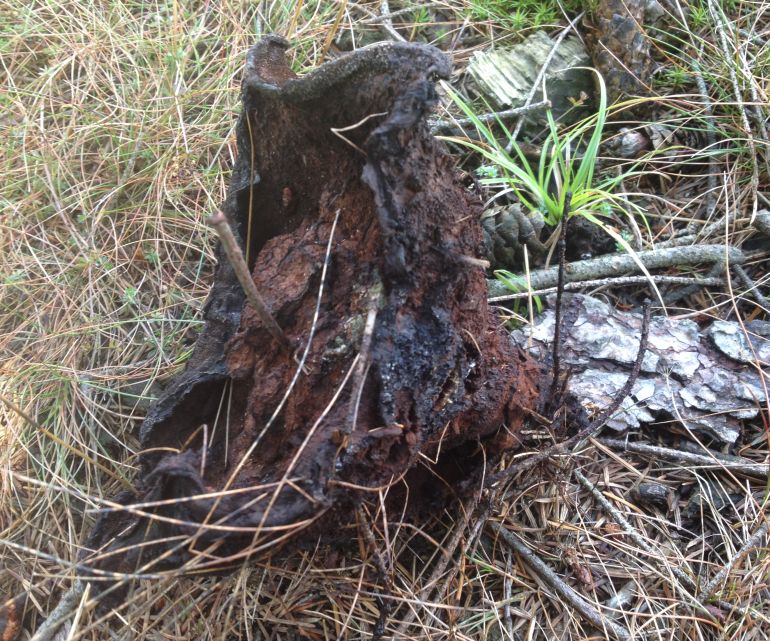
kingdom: Fungi
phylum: Basidiomycota
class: Agaricomycetes
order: Polyporales
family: Laetiporaceae
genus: Phaeolus
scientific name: Phaeolus schweinitzii
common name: brunporesvamp
